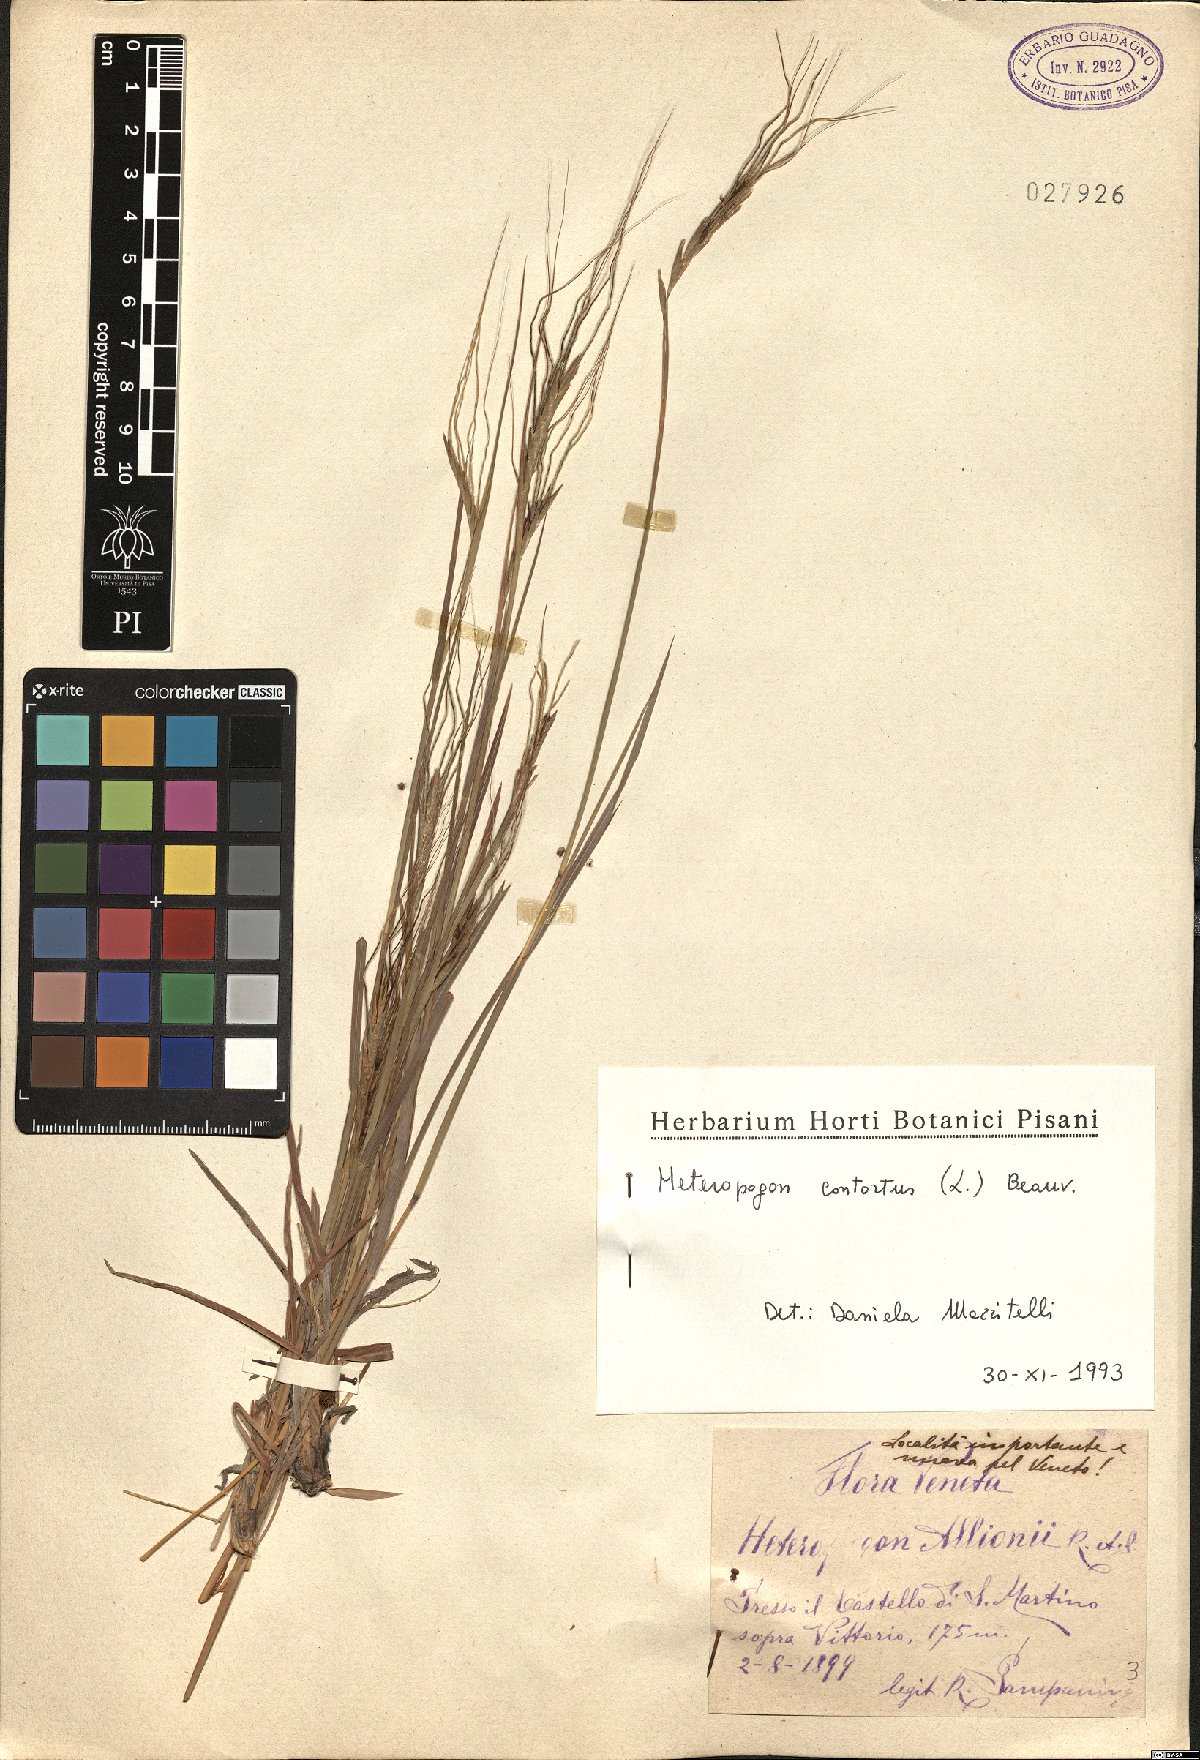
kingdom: Plantae
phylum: Tracheophyta
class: Liliopsida
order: Poales
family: Poaceae
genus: Heteropogon
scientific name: Heteropogon contortus
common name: Tanglehead
